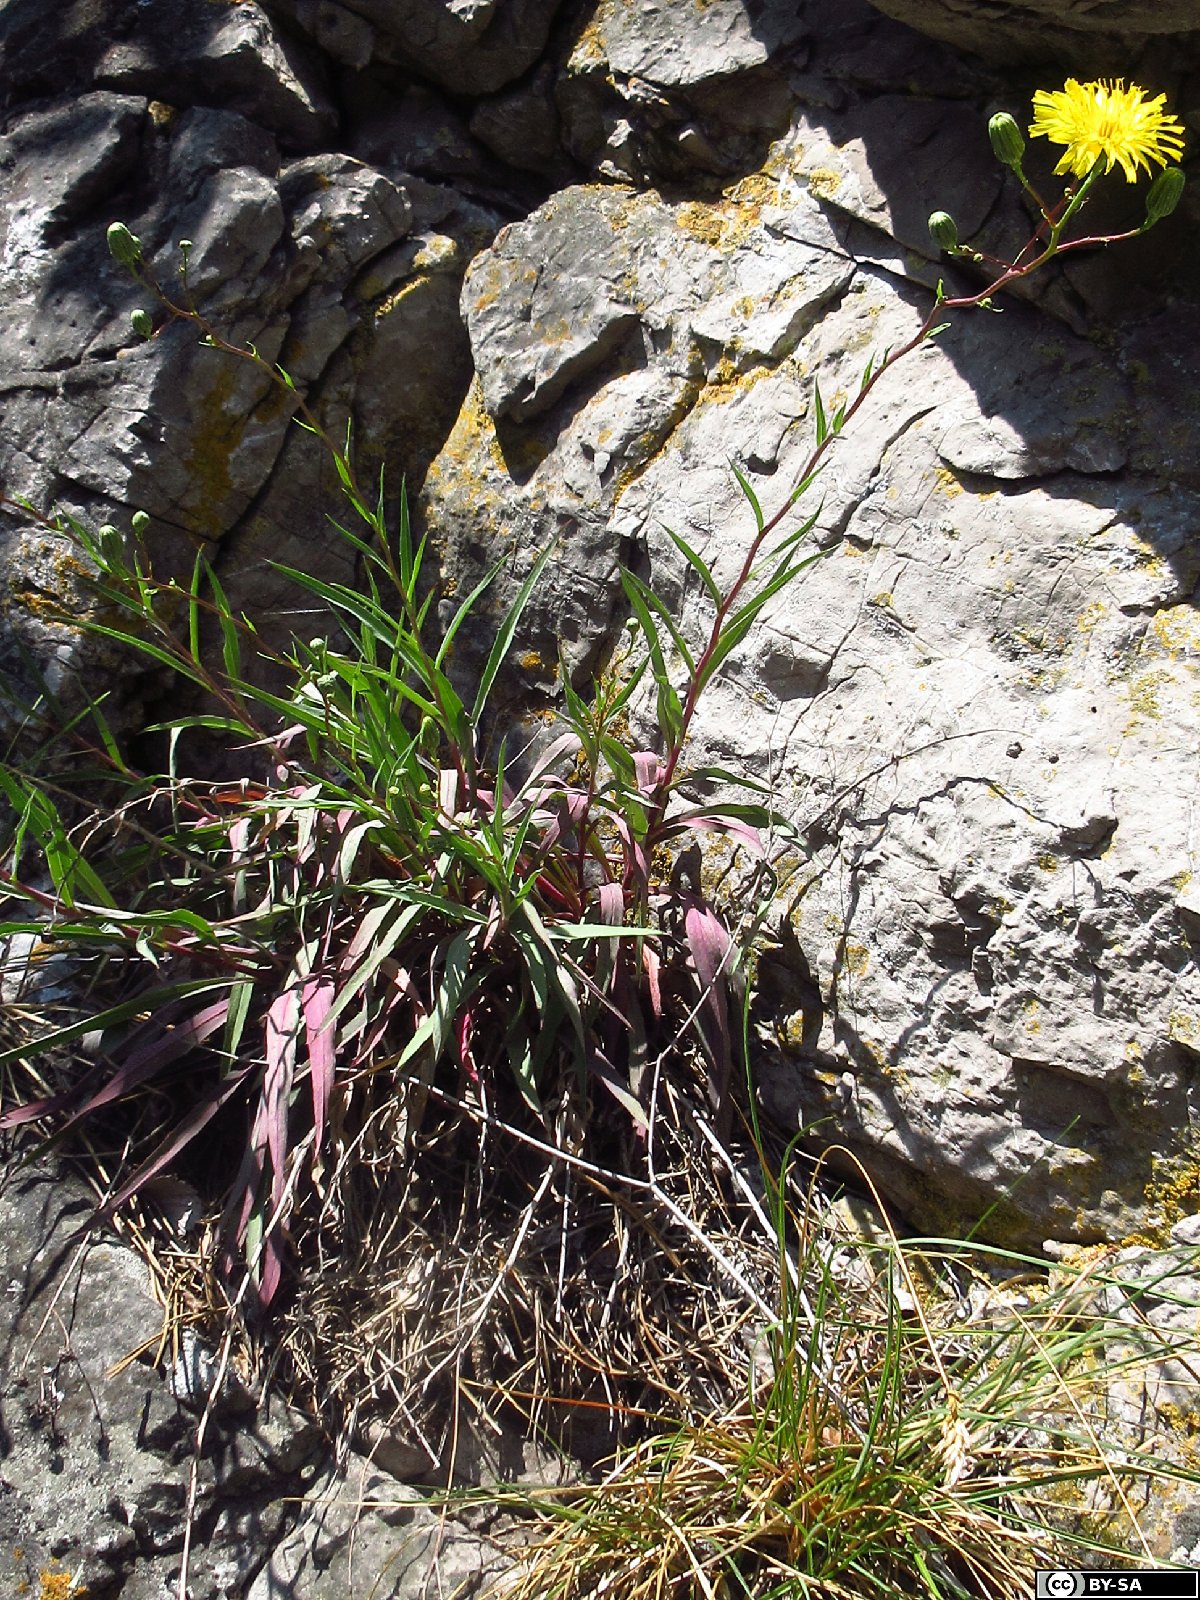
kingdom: Plantae
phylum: Tracheophyta
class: Magnoliopsida
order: Asterales
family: Asteraceae
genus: Hieracium
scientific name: Hieracium vindobonense
